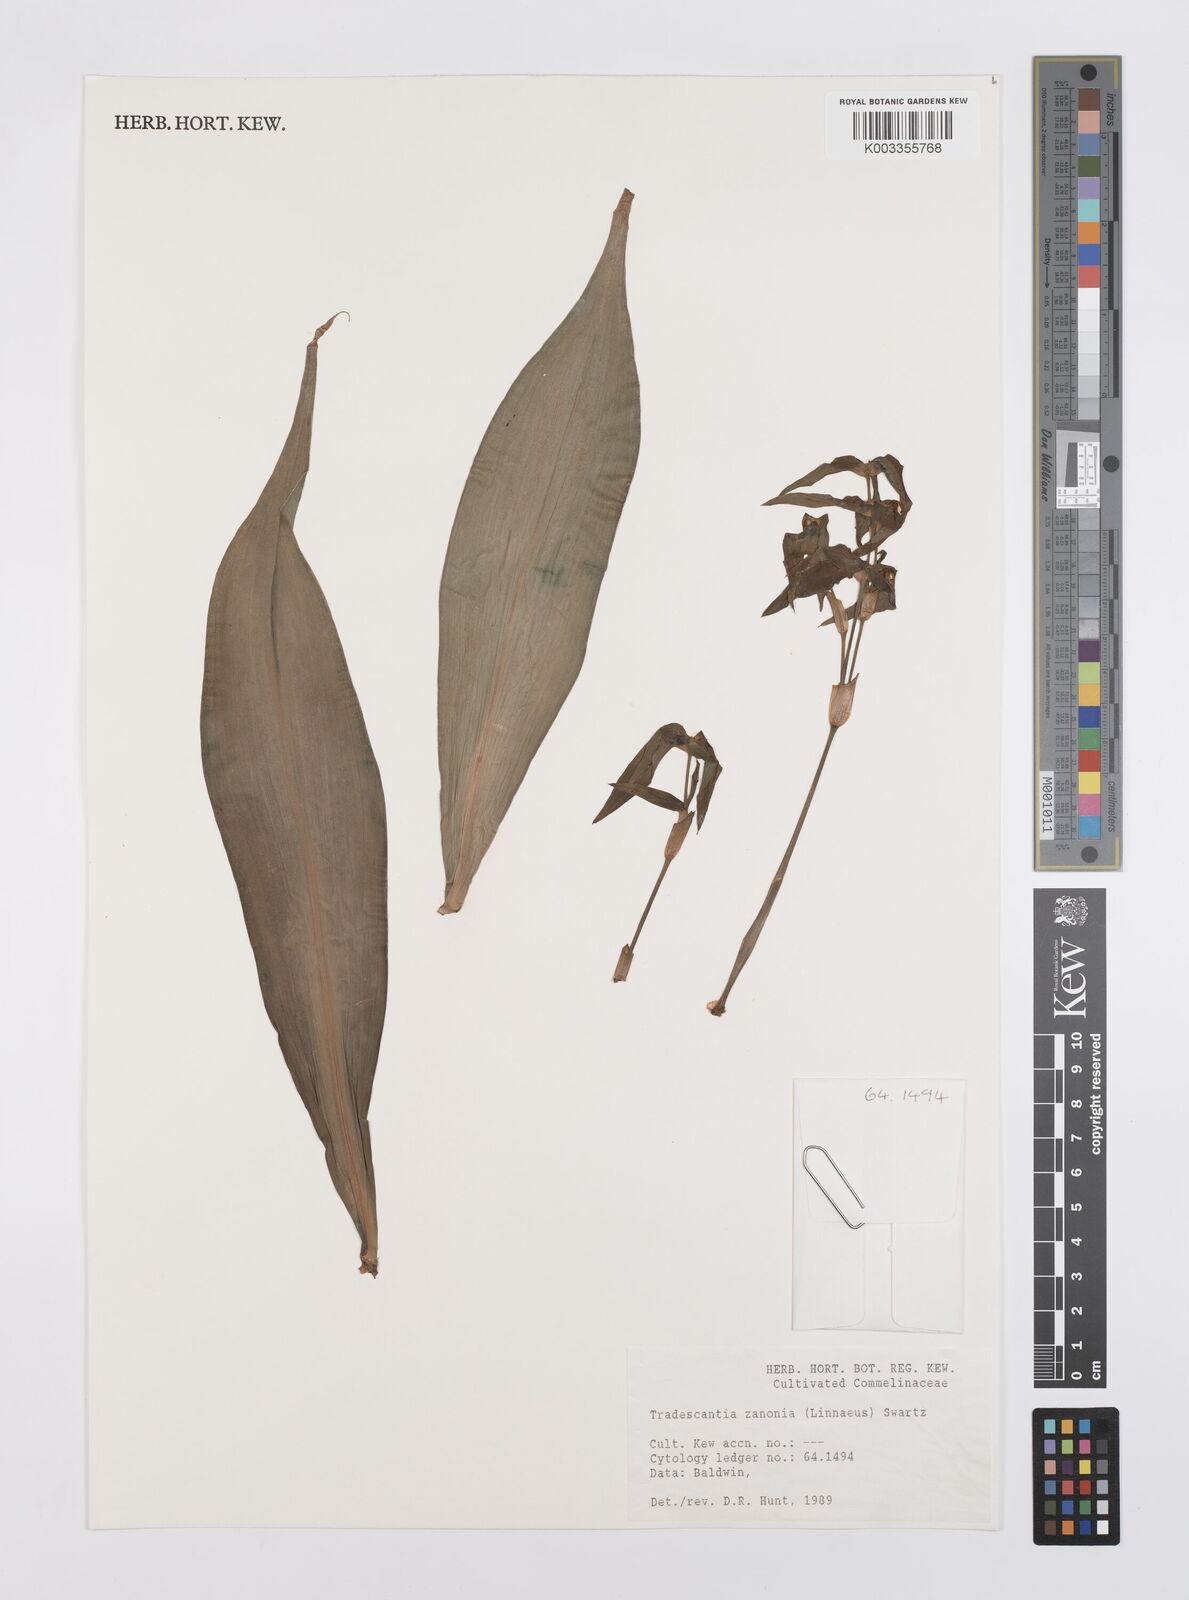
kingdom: Plantae
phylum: Tracheophyta
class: Liliopsida
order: Commelinales
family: Commelinaceae
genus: Tradescantia
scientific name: Tradescantia zanonia
